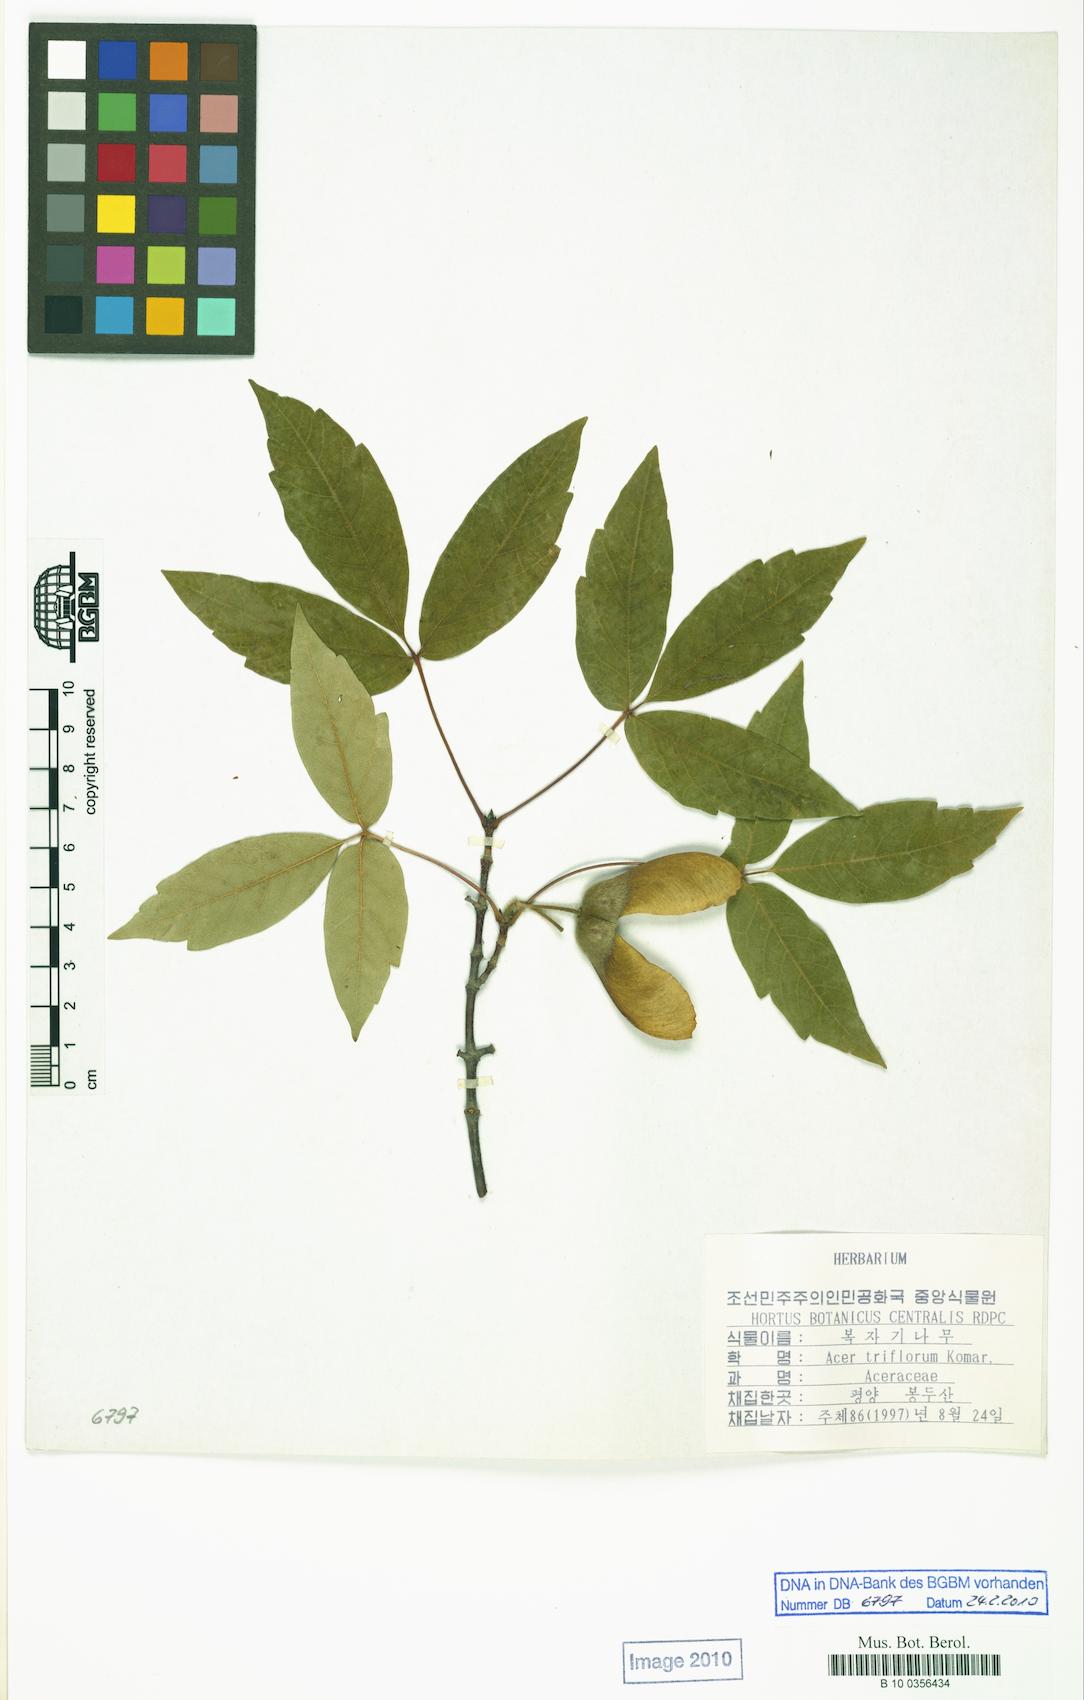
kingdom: Plantae
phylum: Tracheophyta
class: Magnoliopsida
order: Sapindales
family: Sapindaceae
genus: Acer
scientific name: Acer triflorum
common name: Three-flower maple
